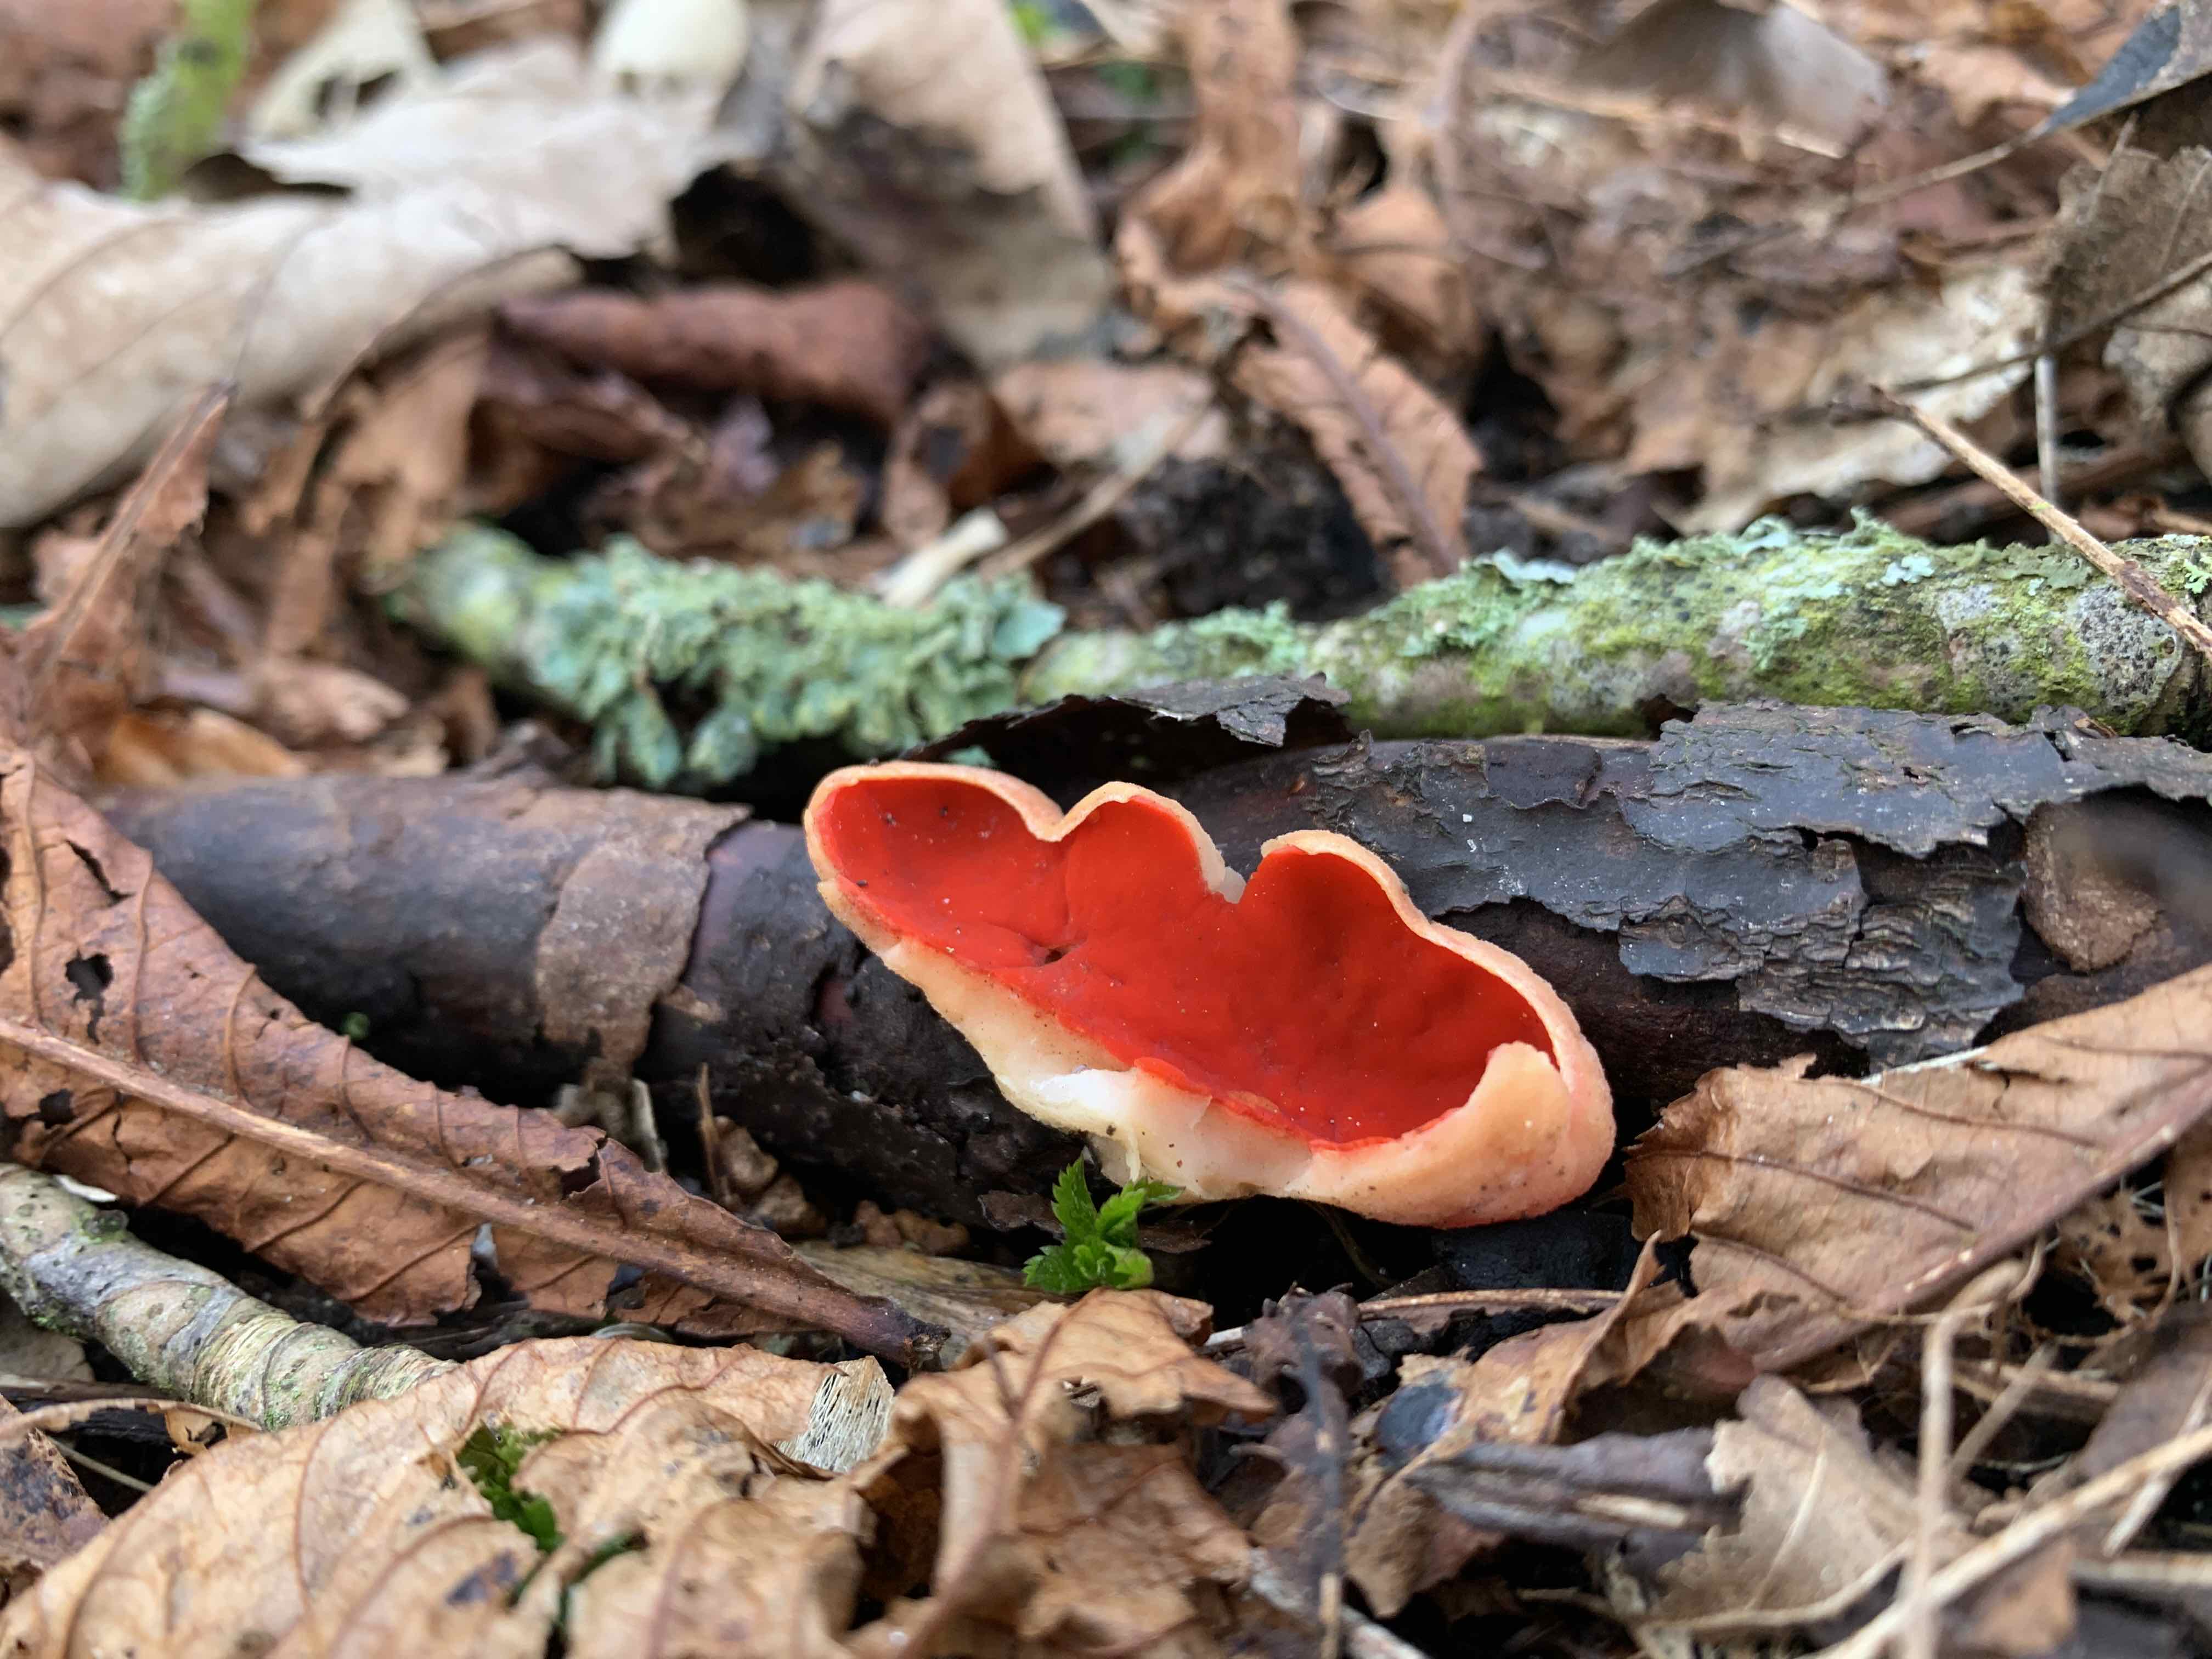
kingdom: Fungi
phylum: Ascomycota
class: Pezizomycetes
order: Pezizales
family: Sarcoscyphaceae
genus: Sarcoscypha
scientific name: Sarcoscypha austriaca
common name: krølhåret pragtbæger
